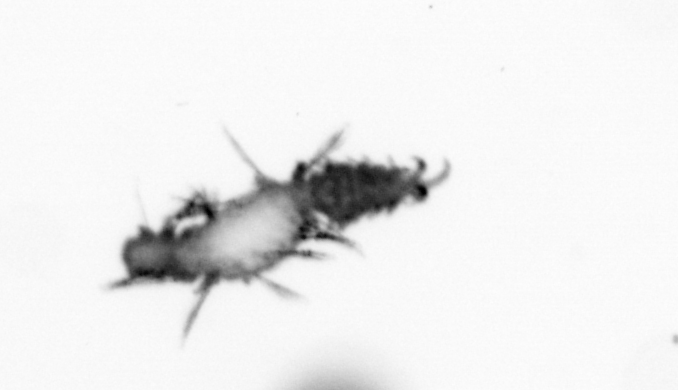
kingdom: Animalia
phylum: Annelida
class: Polychaeta
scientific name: Polychaeta
